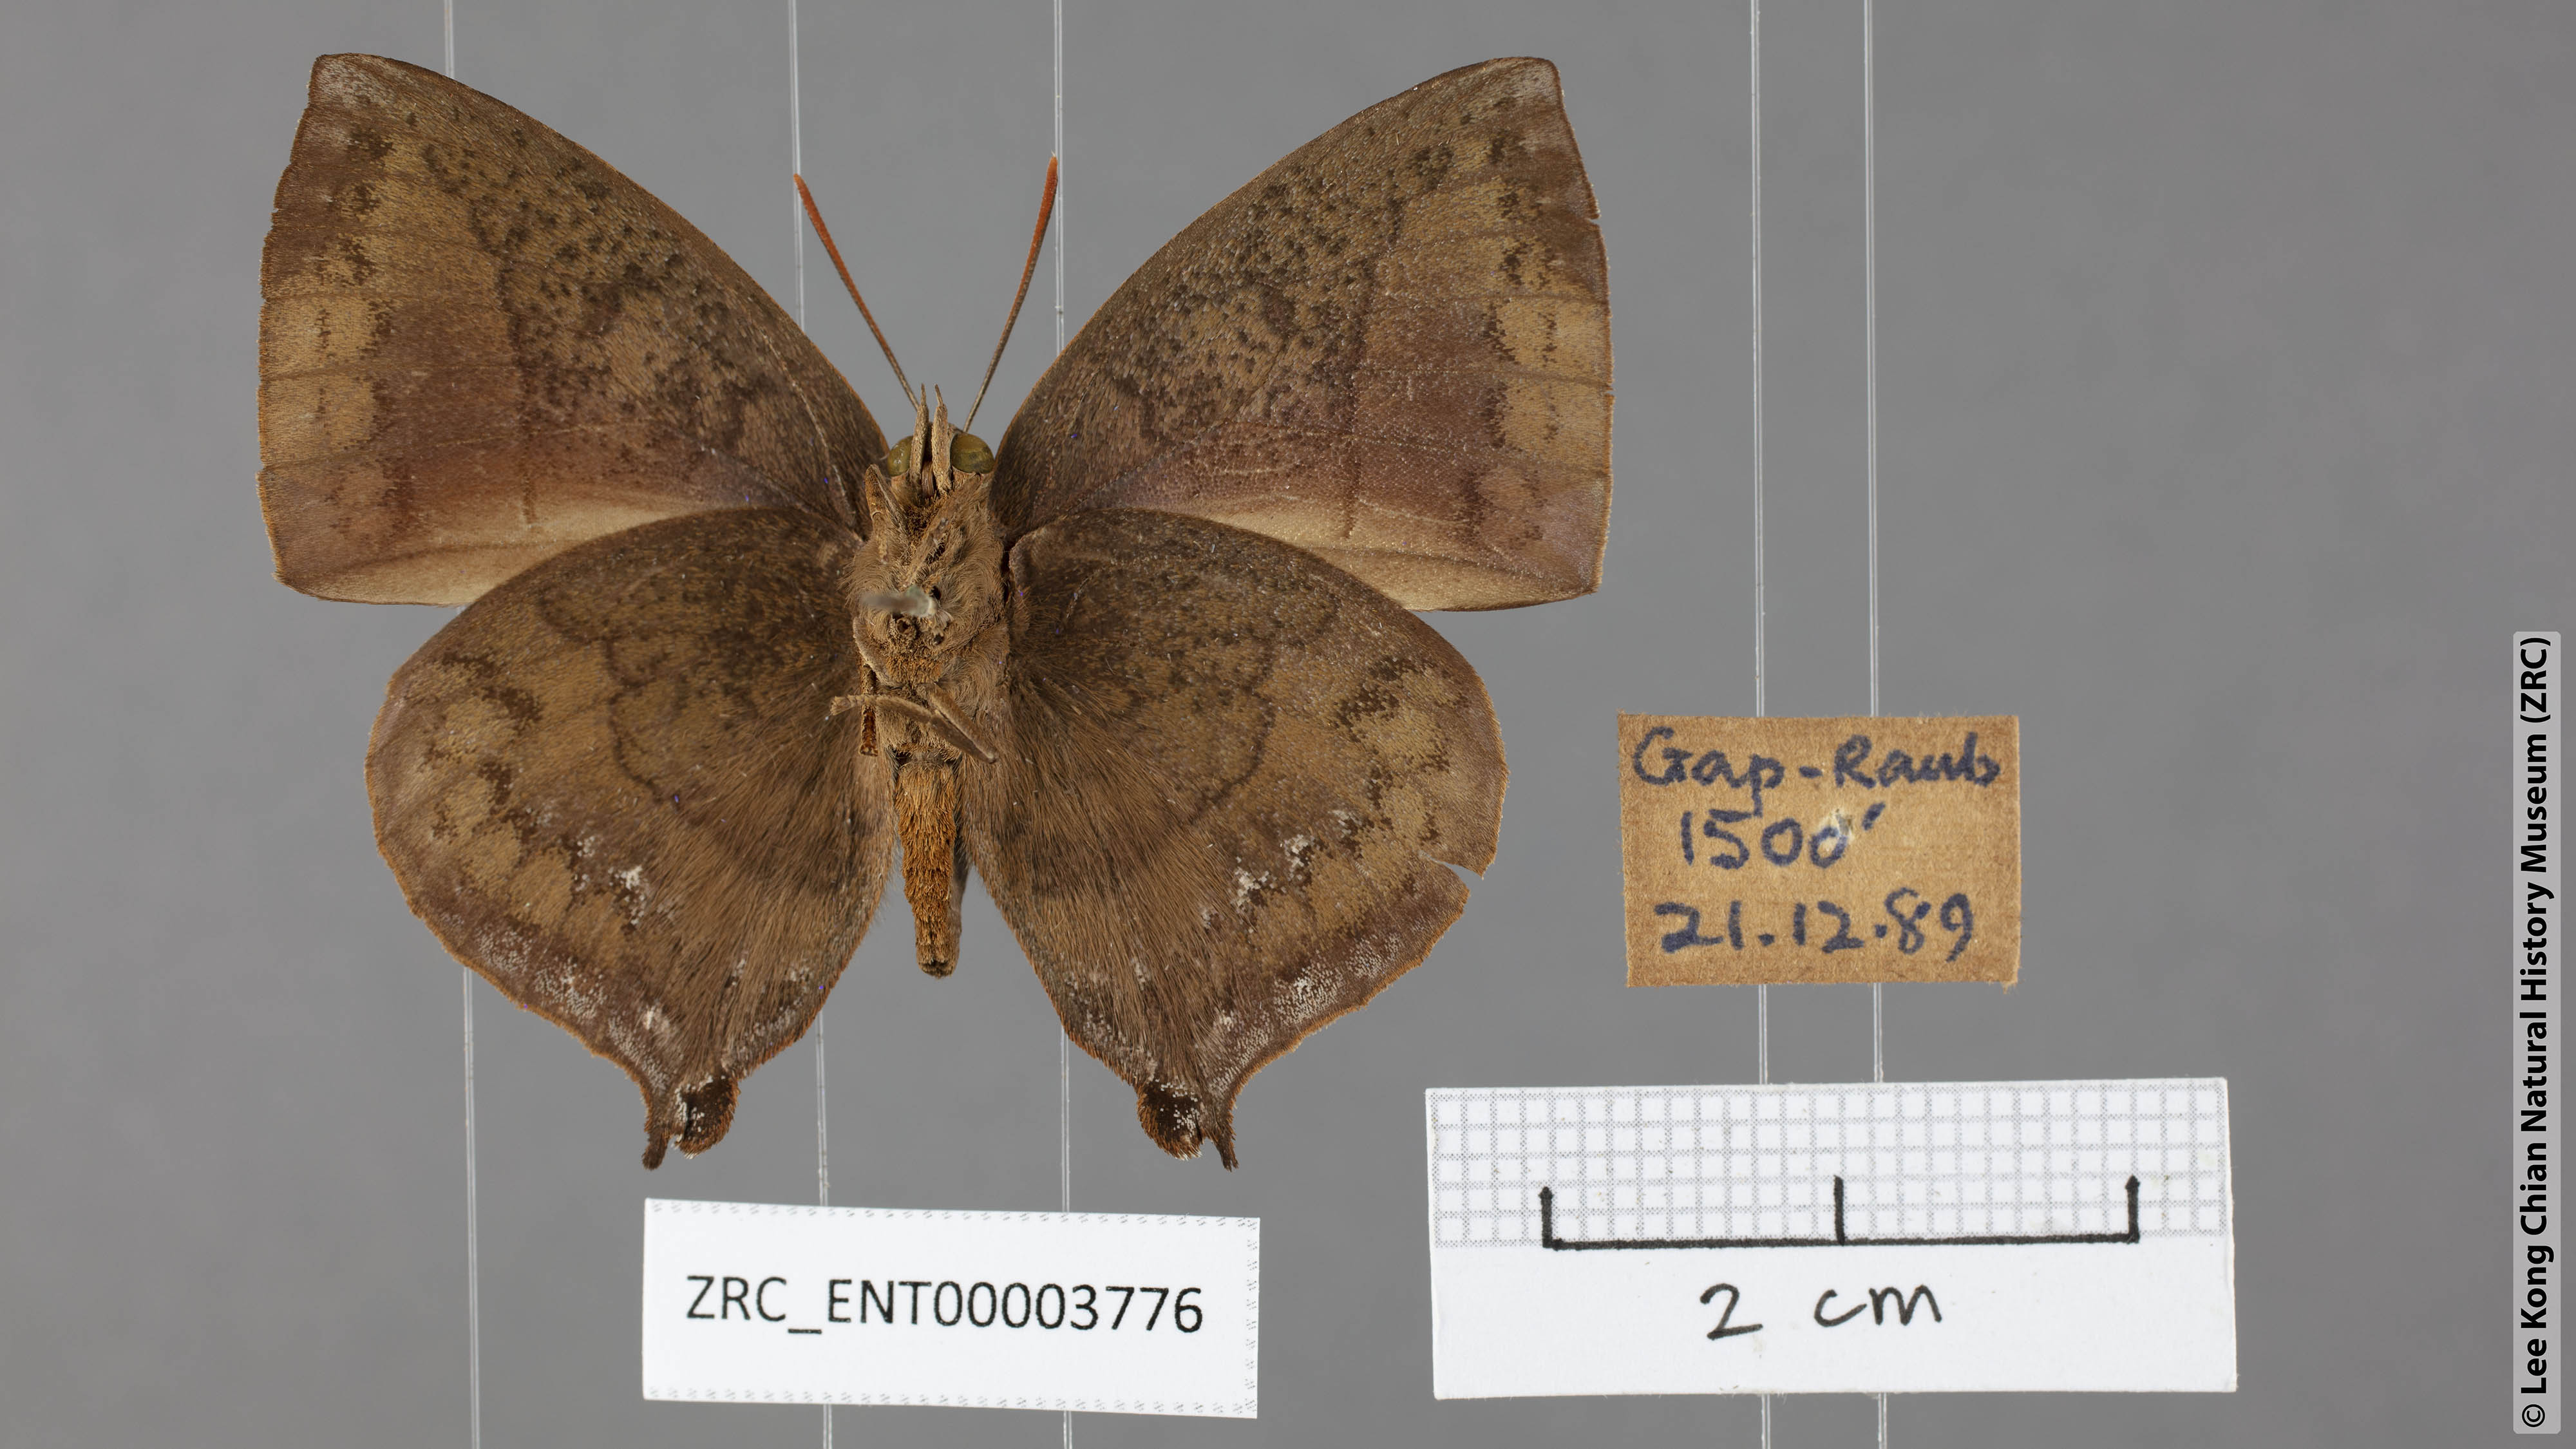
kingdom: Animalia
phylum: Arthropoda
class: Insecta
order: Lepidoptera
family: Lycaenidae
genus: Amblypodia
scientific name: Amblypodia narada
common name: Blue leaf blue
